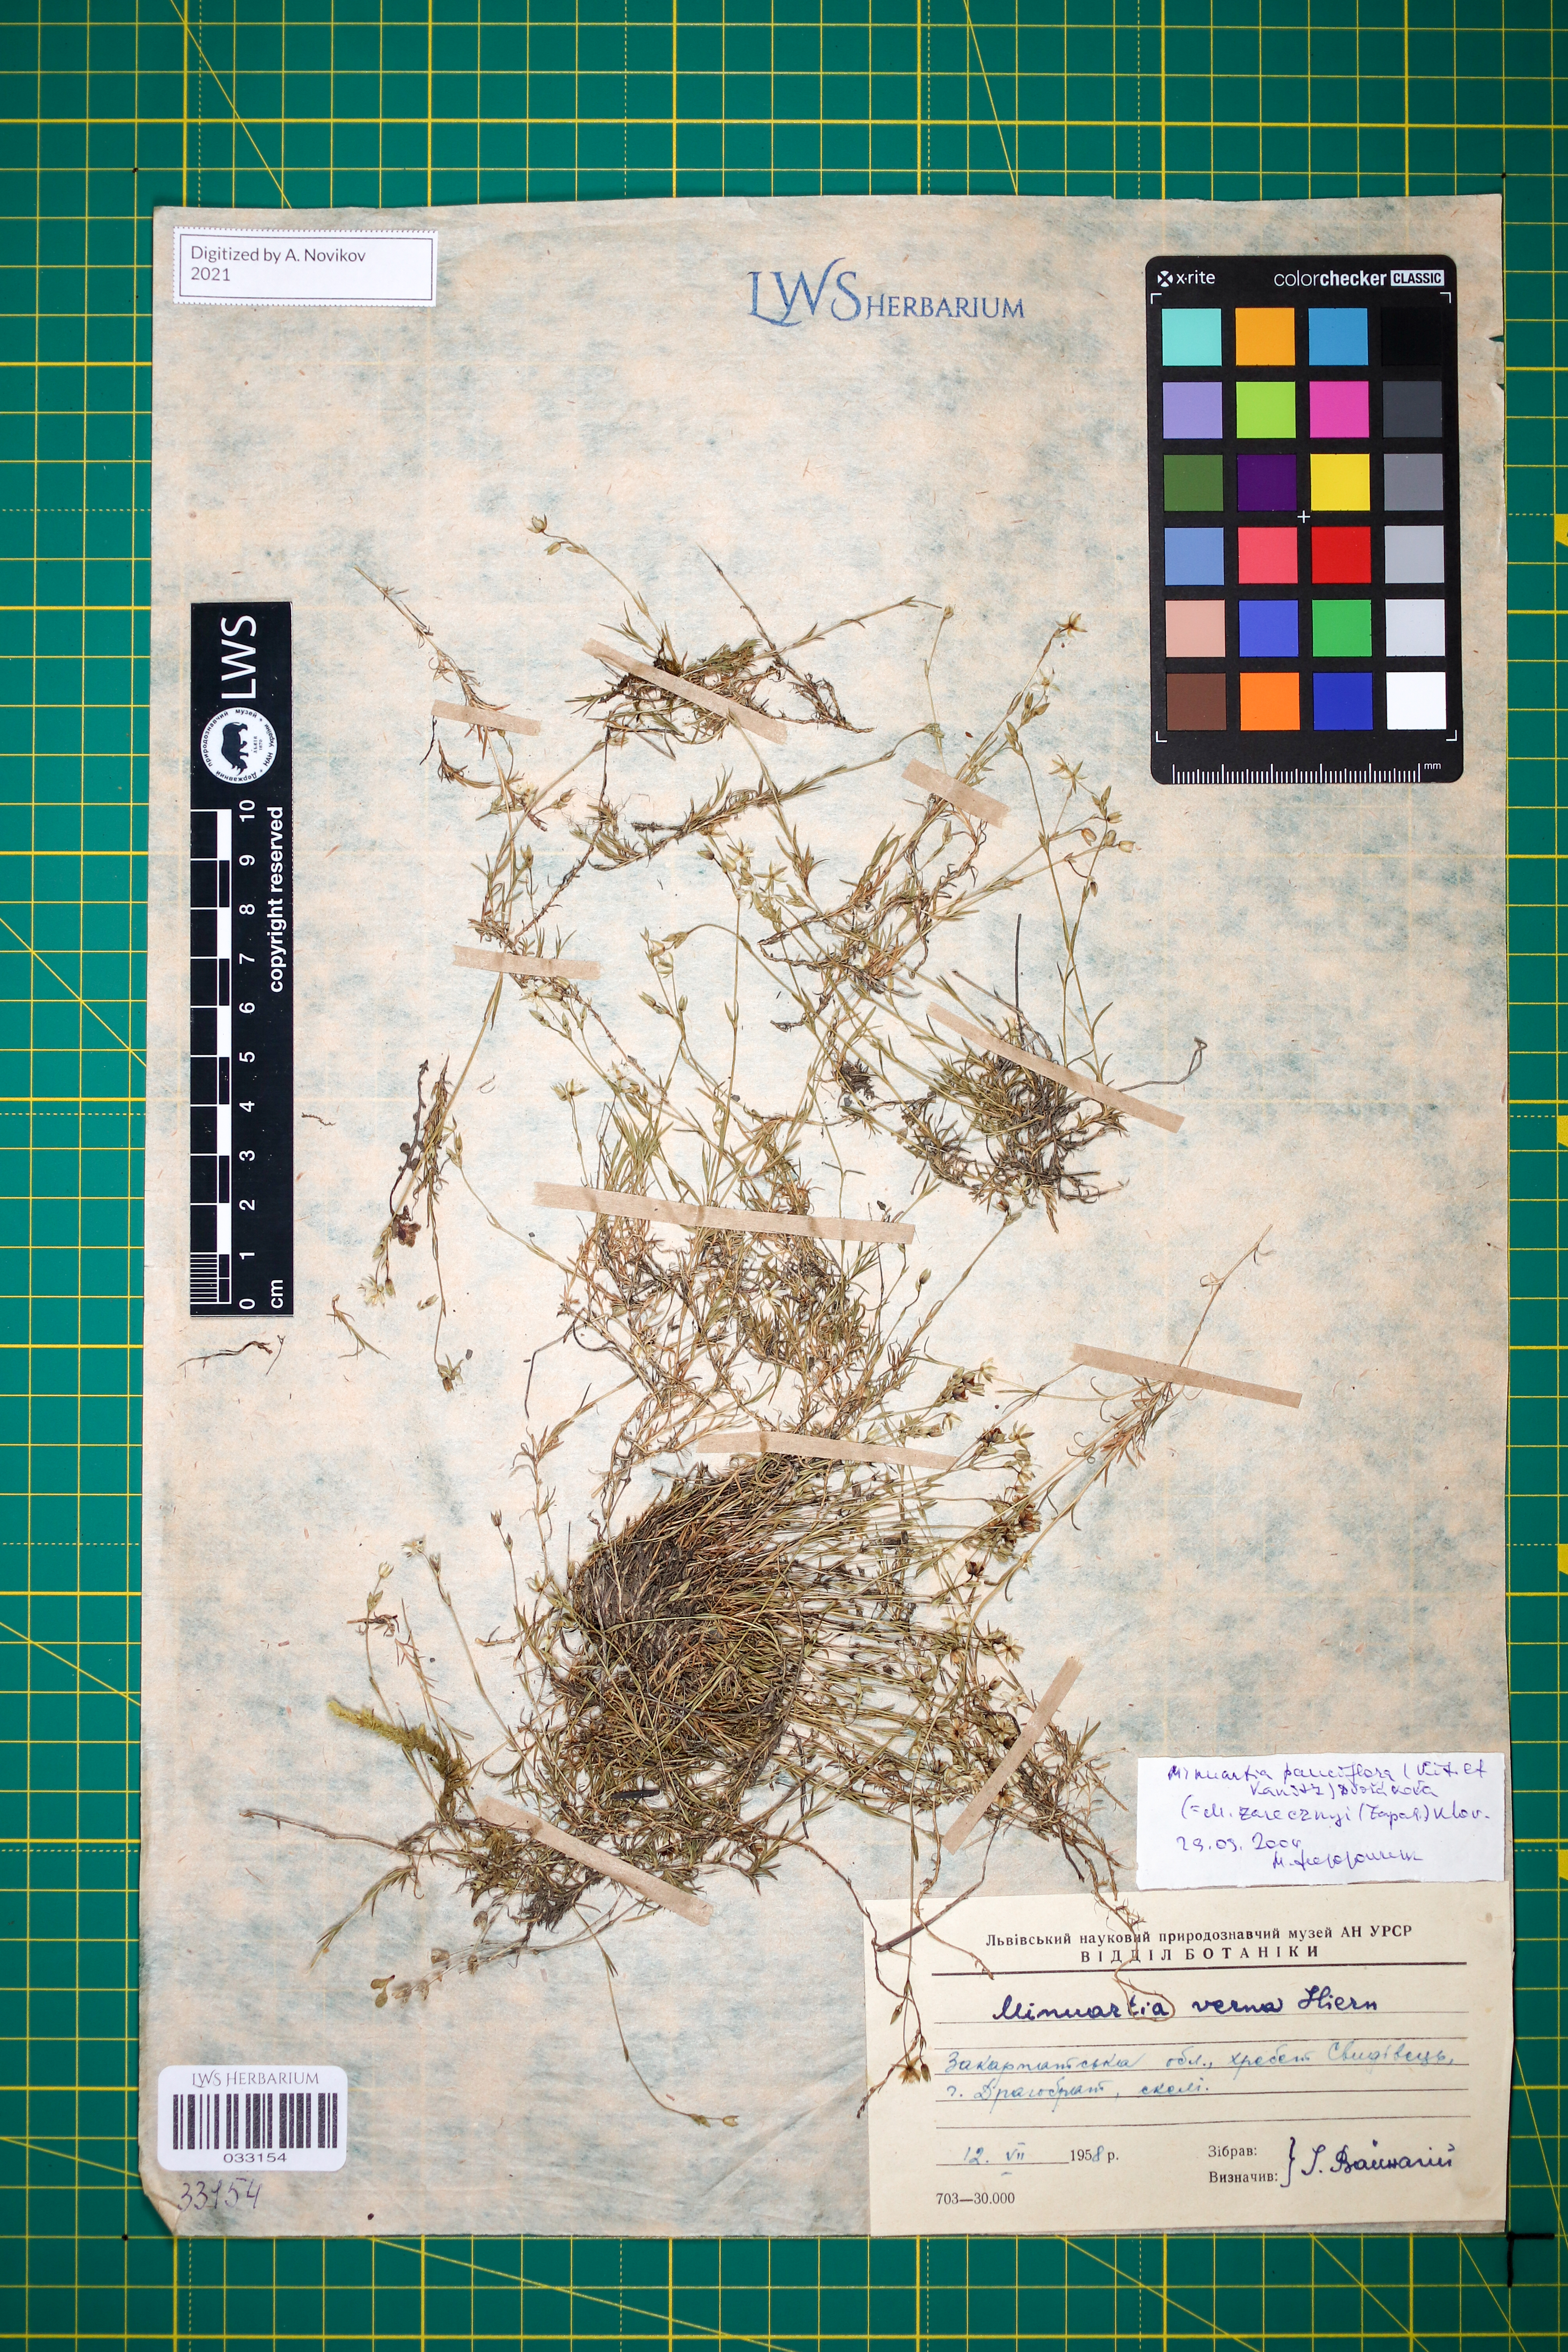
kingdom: Plantae
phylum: Tracheophyta
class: Magnoliopsida
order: Caryophyllales
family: Caryophyllaceae
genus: Minuartia
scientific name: Minuartia pauciflora
